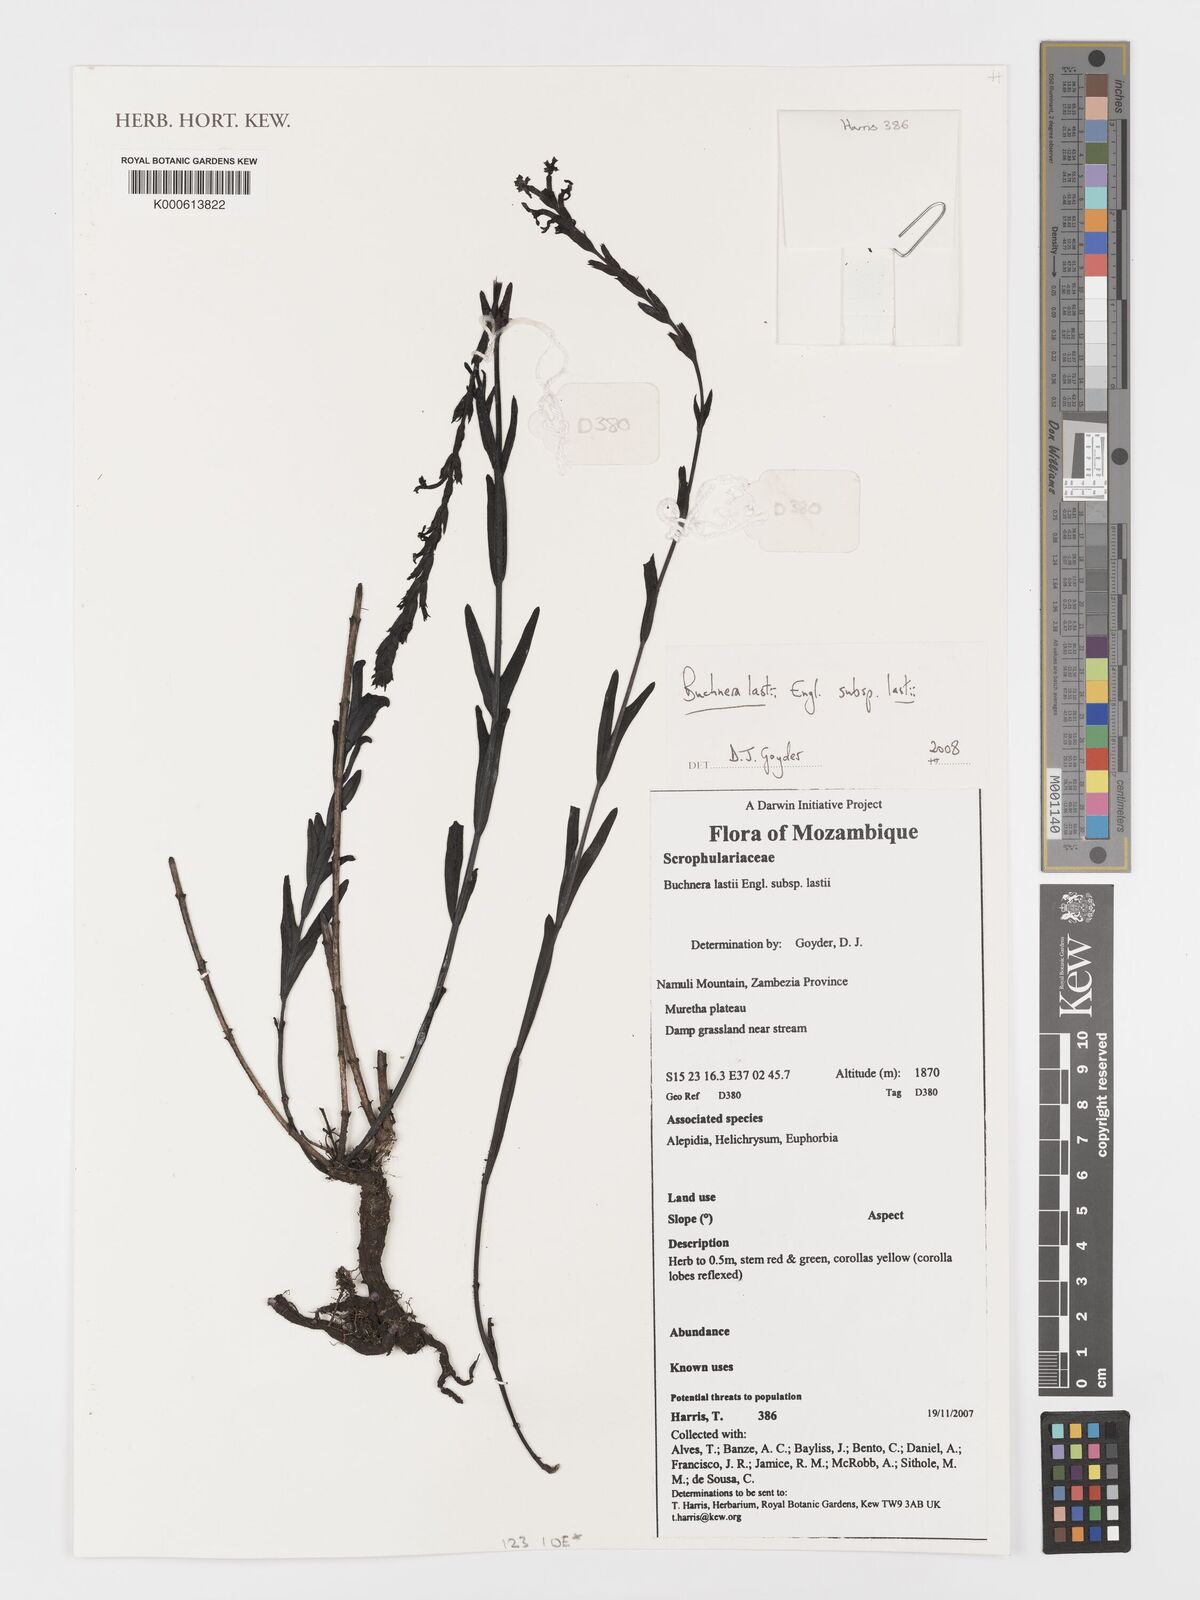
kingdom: Plantae
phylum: Tracheophyta
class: Magnoliopsida
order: Lamiales
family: Orobanchaceae
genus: Buchnera
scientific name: Buchnera lastii
